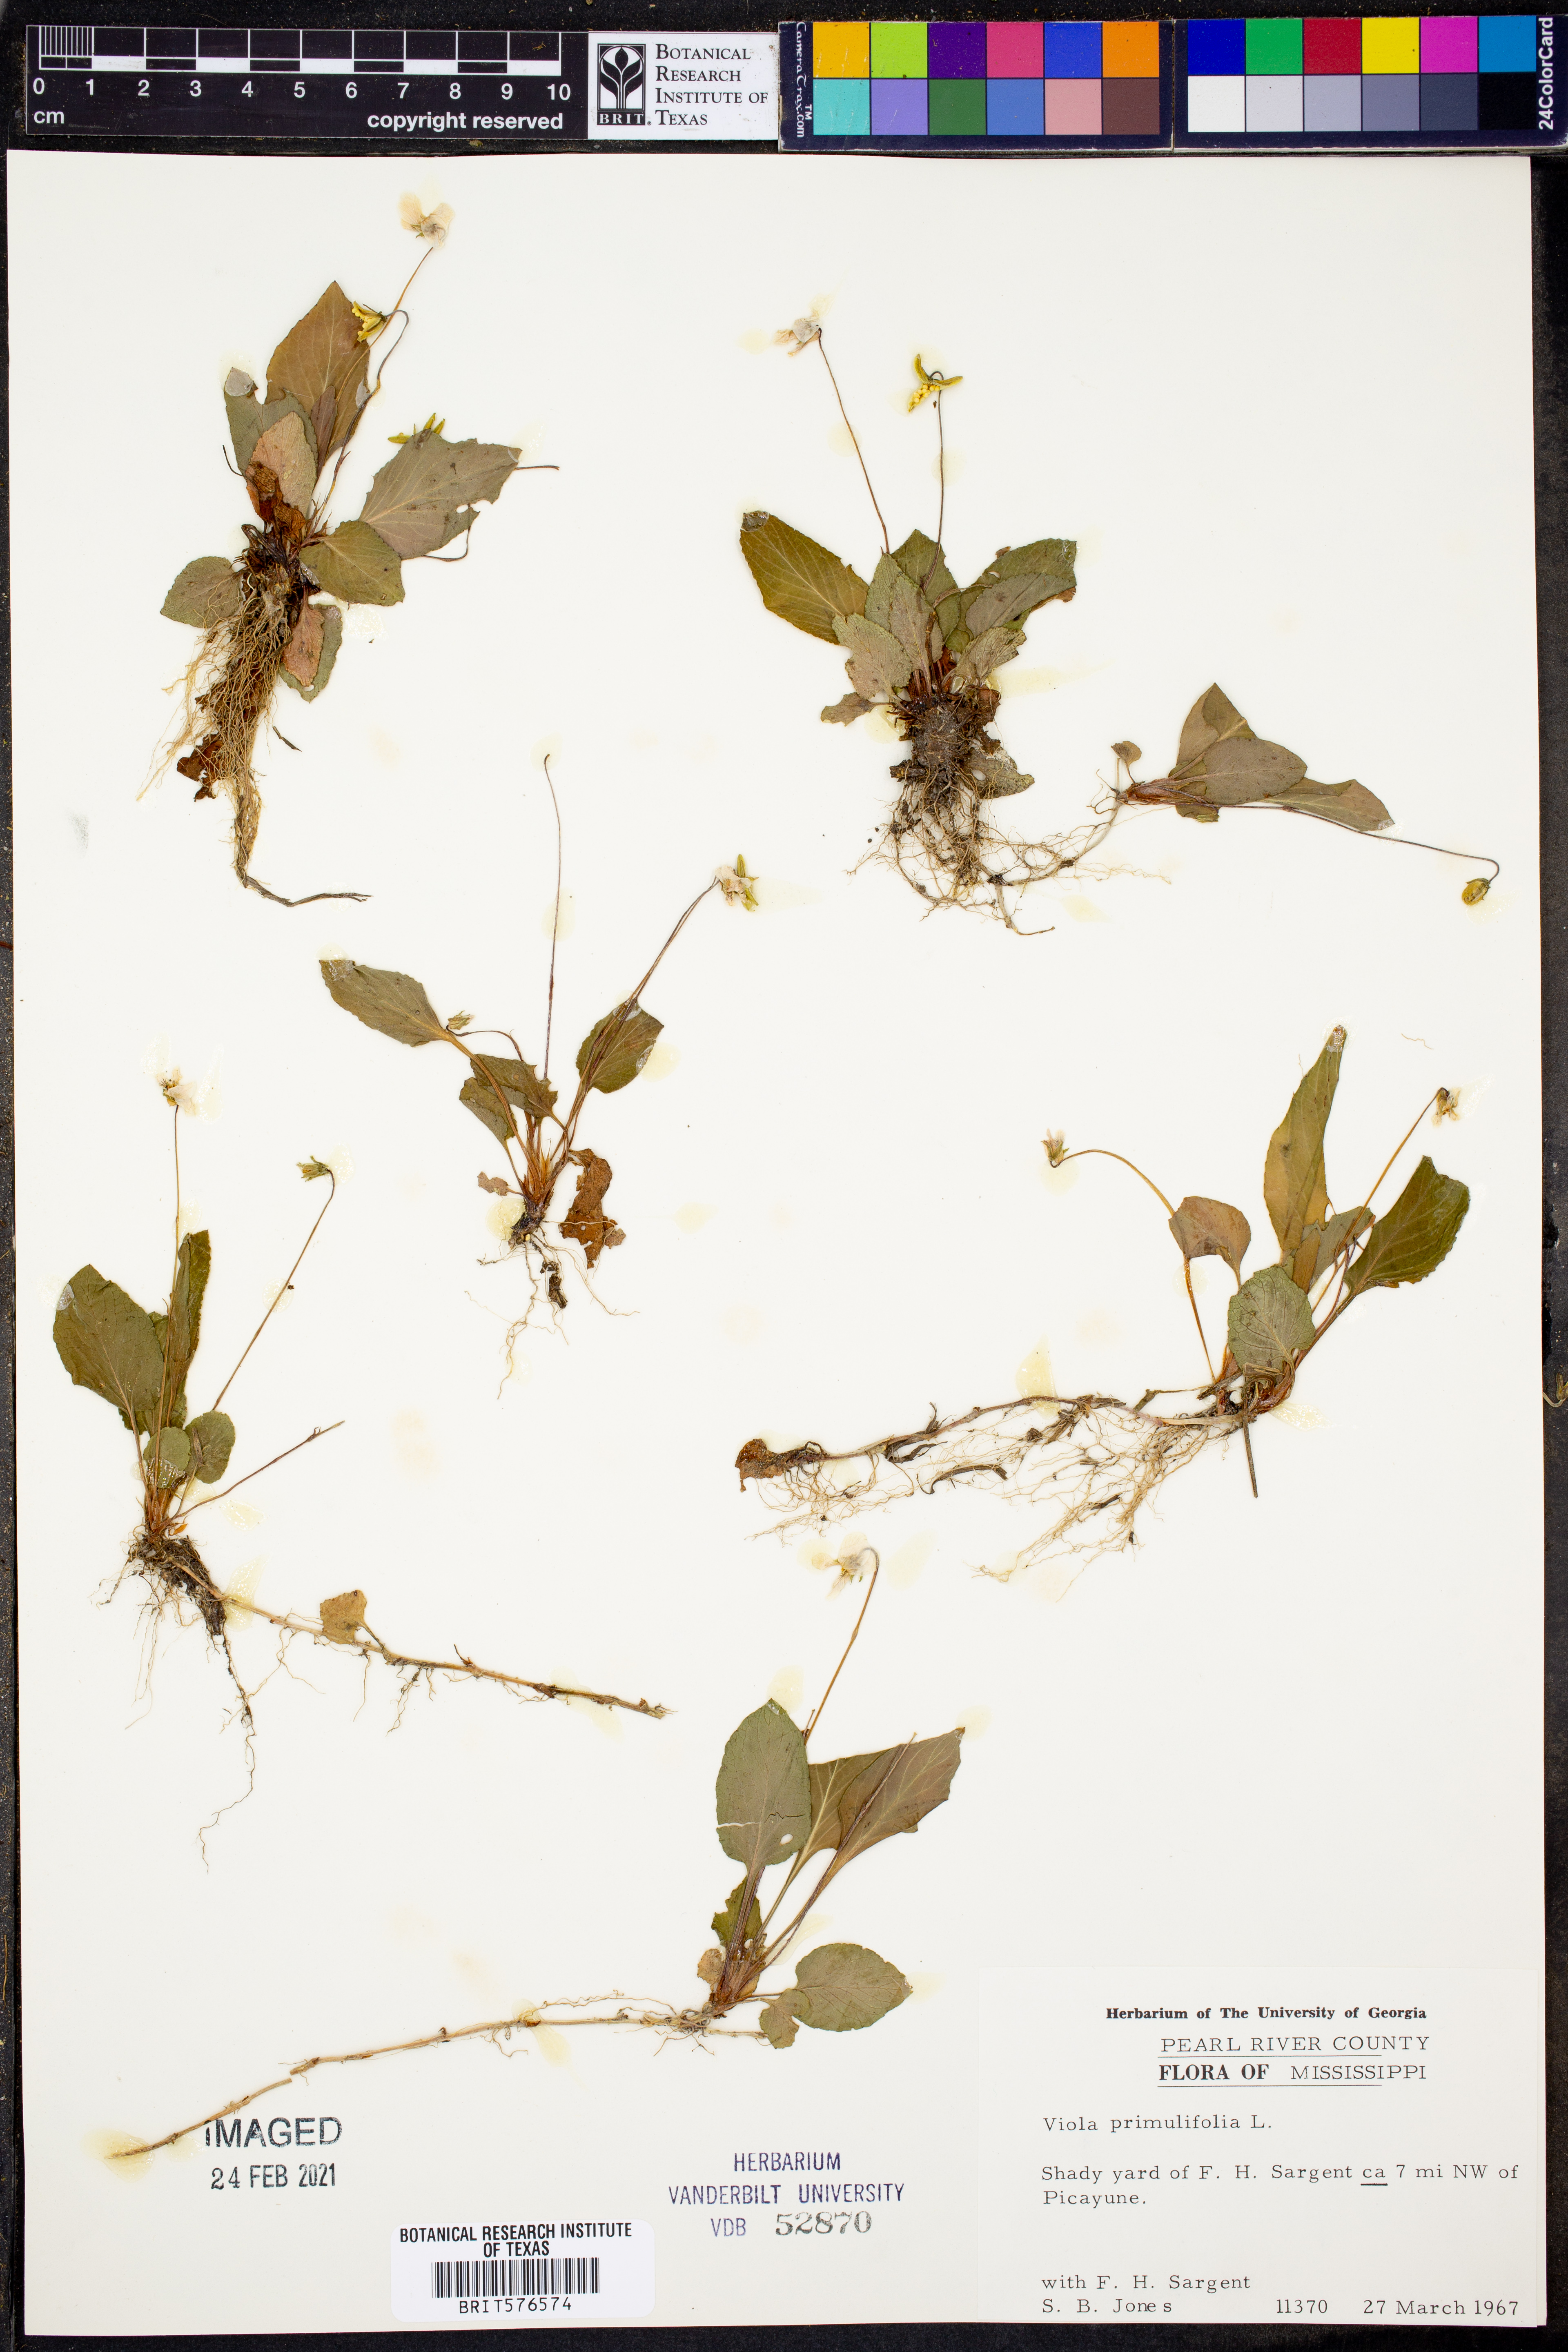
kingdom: Plantae
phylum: Tracheophyta
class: Magnoliopsida
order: Malpighiales
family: Violaceae
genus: Viola
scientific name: Viola primulifolia
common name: Primrose-leaf violet
